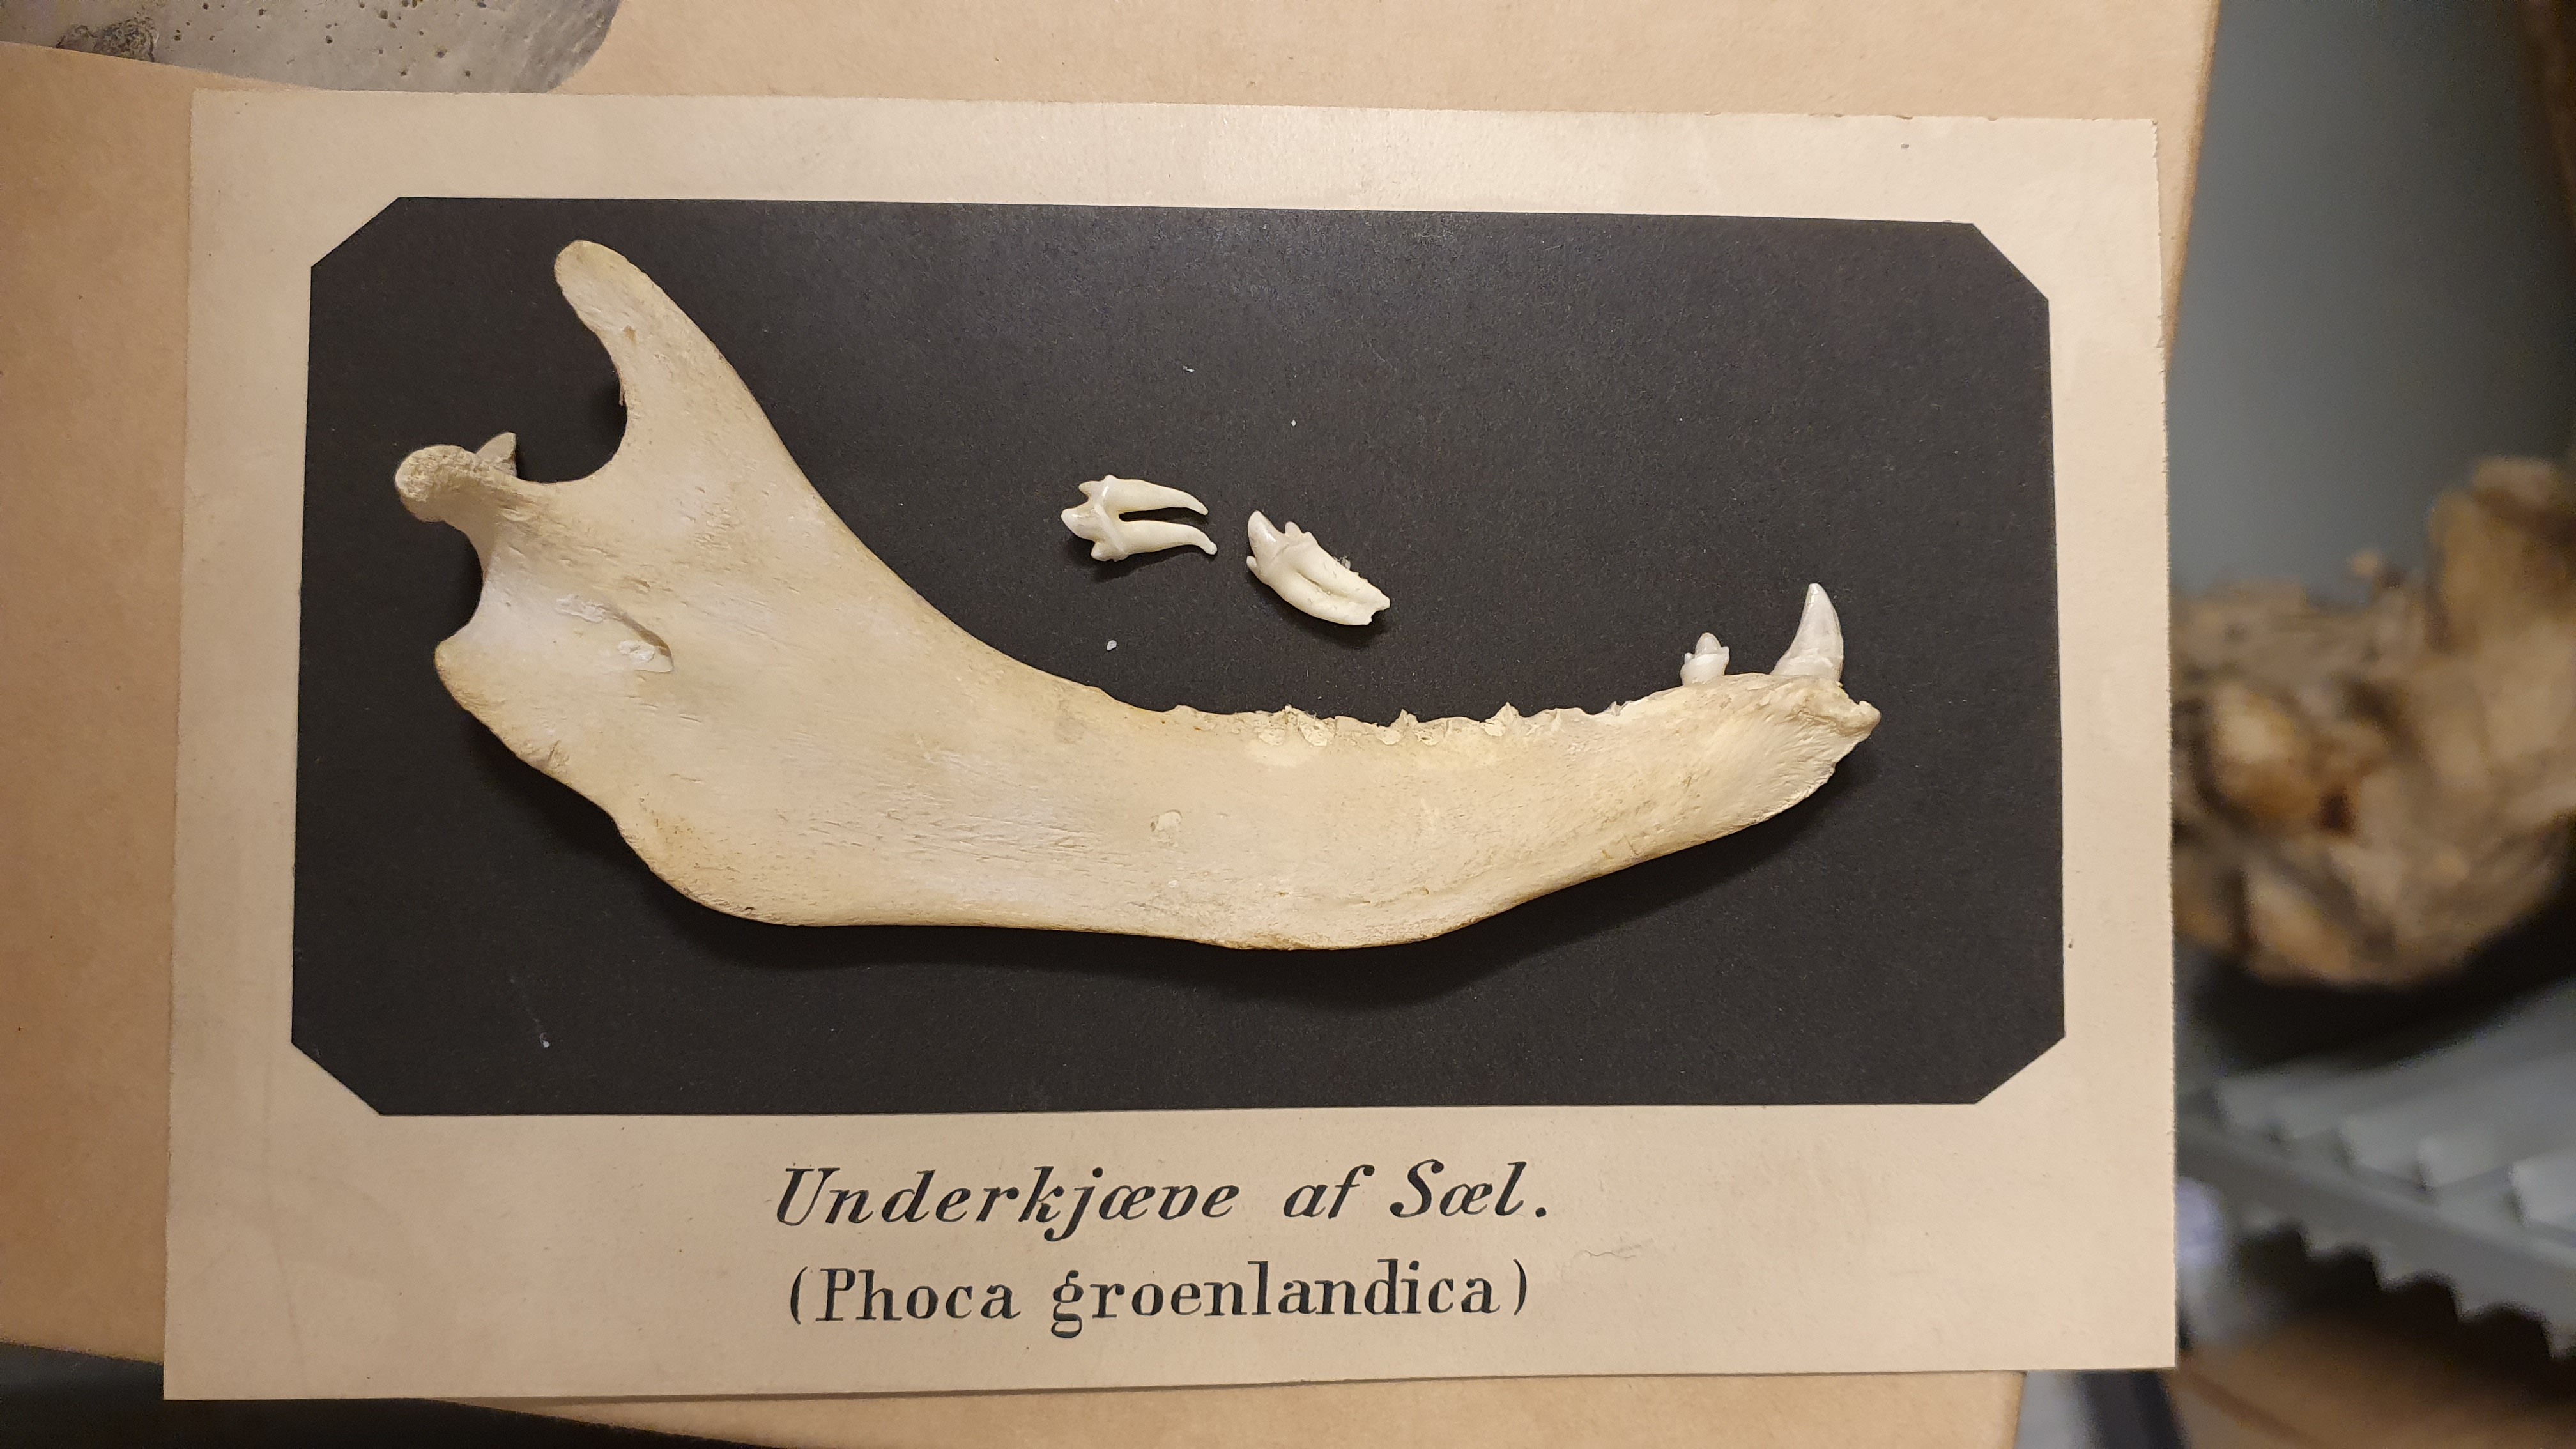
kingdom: Animalia
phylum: Chordata
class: Mammalia
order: Carnivora
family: Phocidae
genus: Pagophilus
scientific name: Pagophilus groenlandicus
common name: Harp seal
